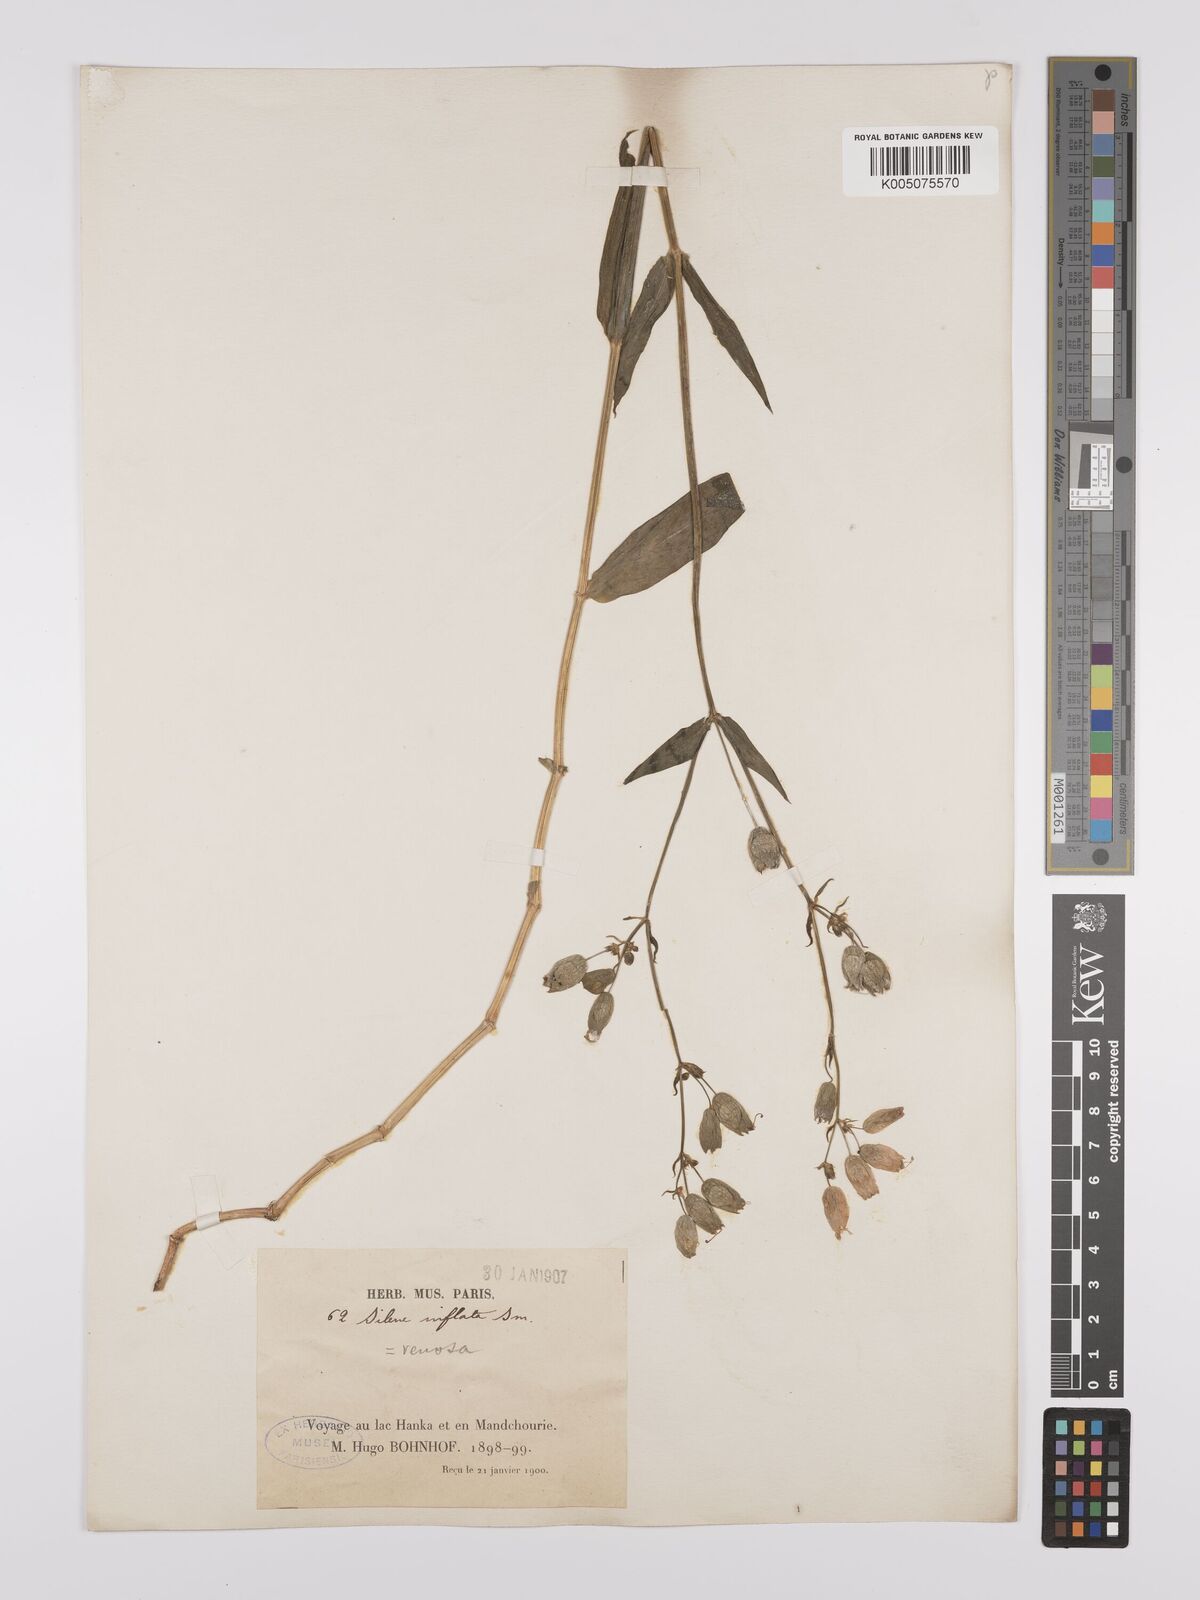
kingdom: Plantae
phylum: Tracheophyta
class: Magnoliopsida
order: Caryophyllales
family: Caryophyllaceae
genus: Silene
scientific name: Silene vulgaris
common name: Bladder campion
